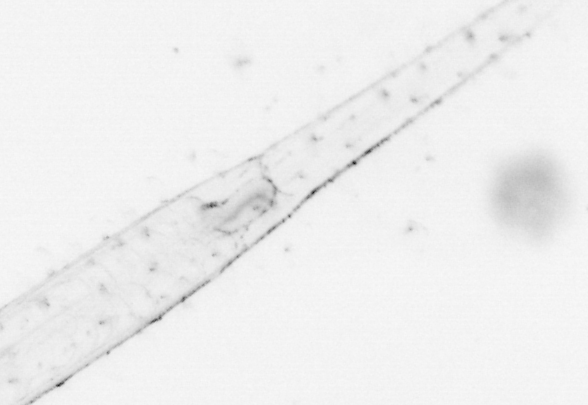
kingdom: Animalia
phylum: Chaetognatha
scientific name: Chaetognatha
